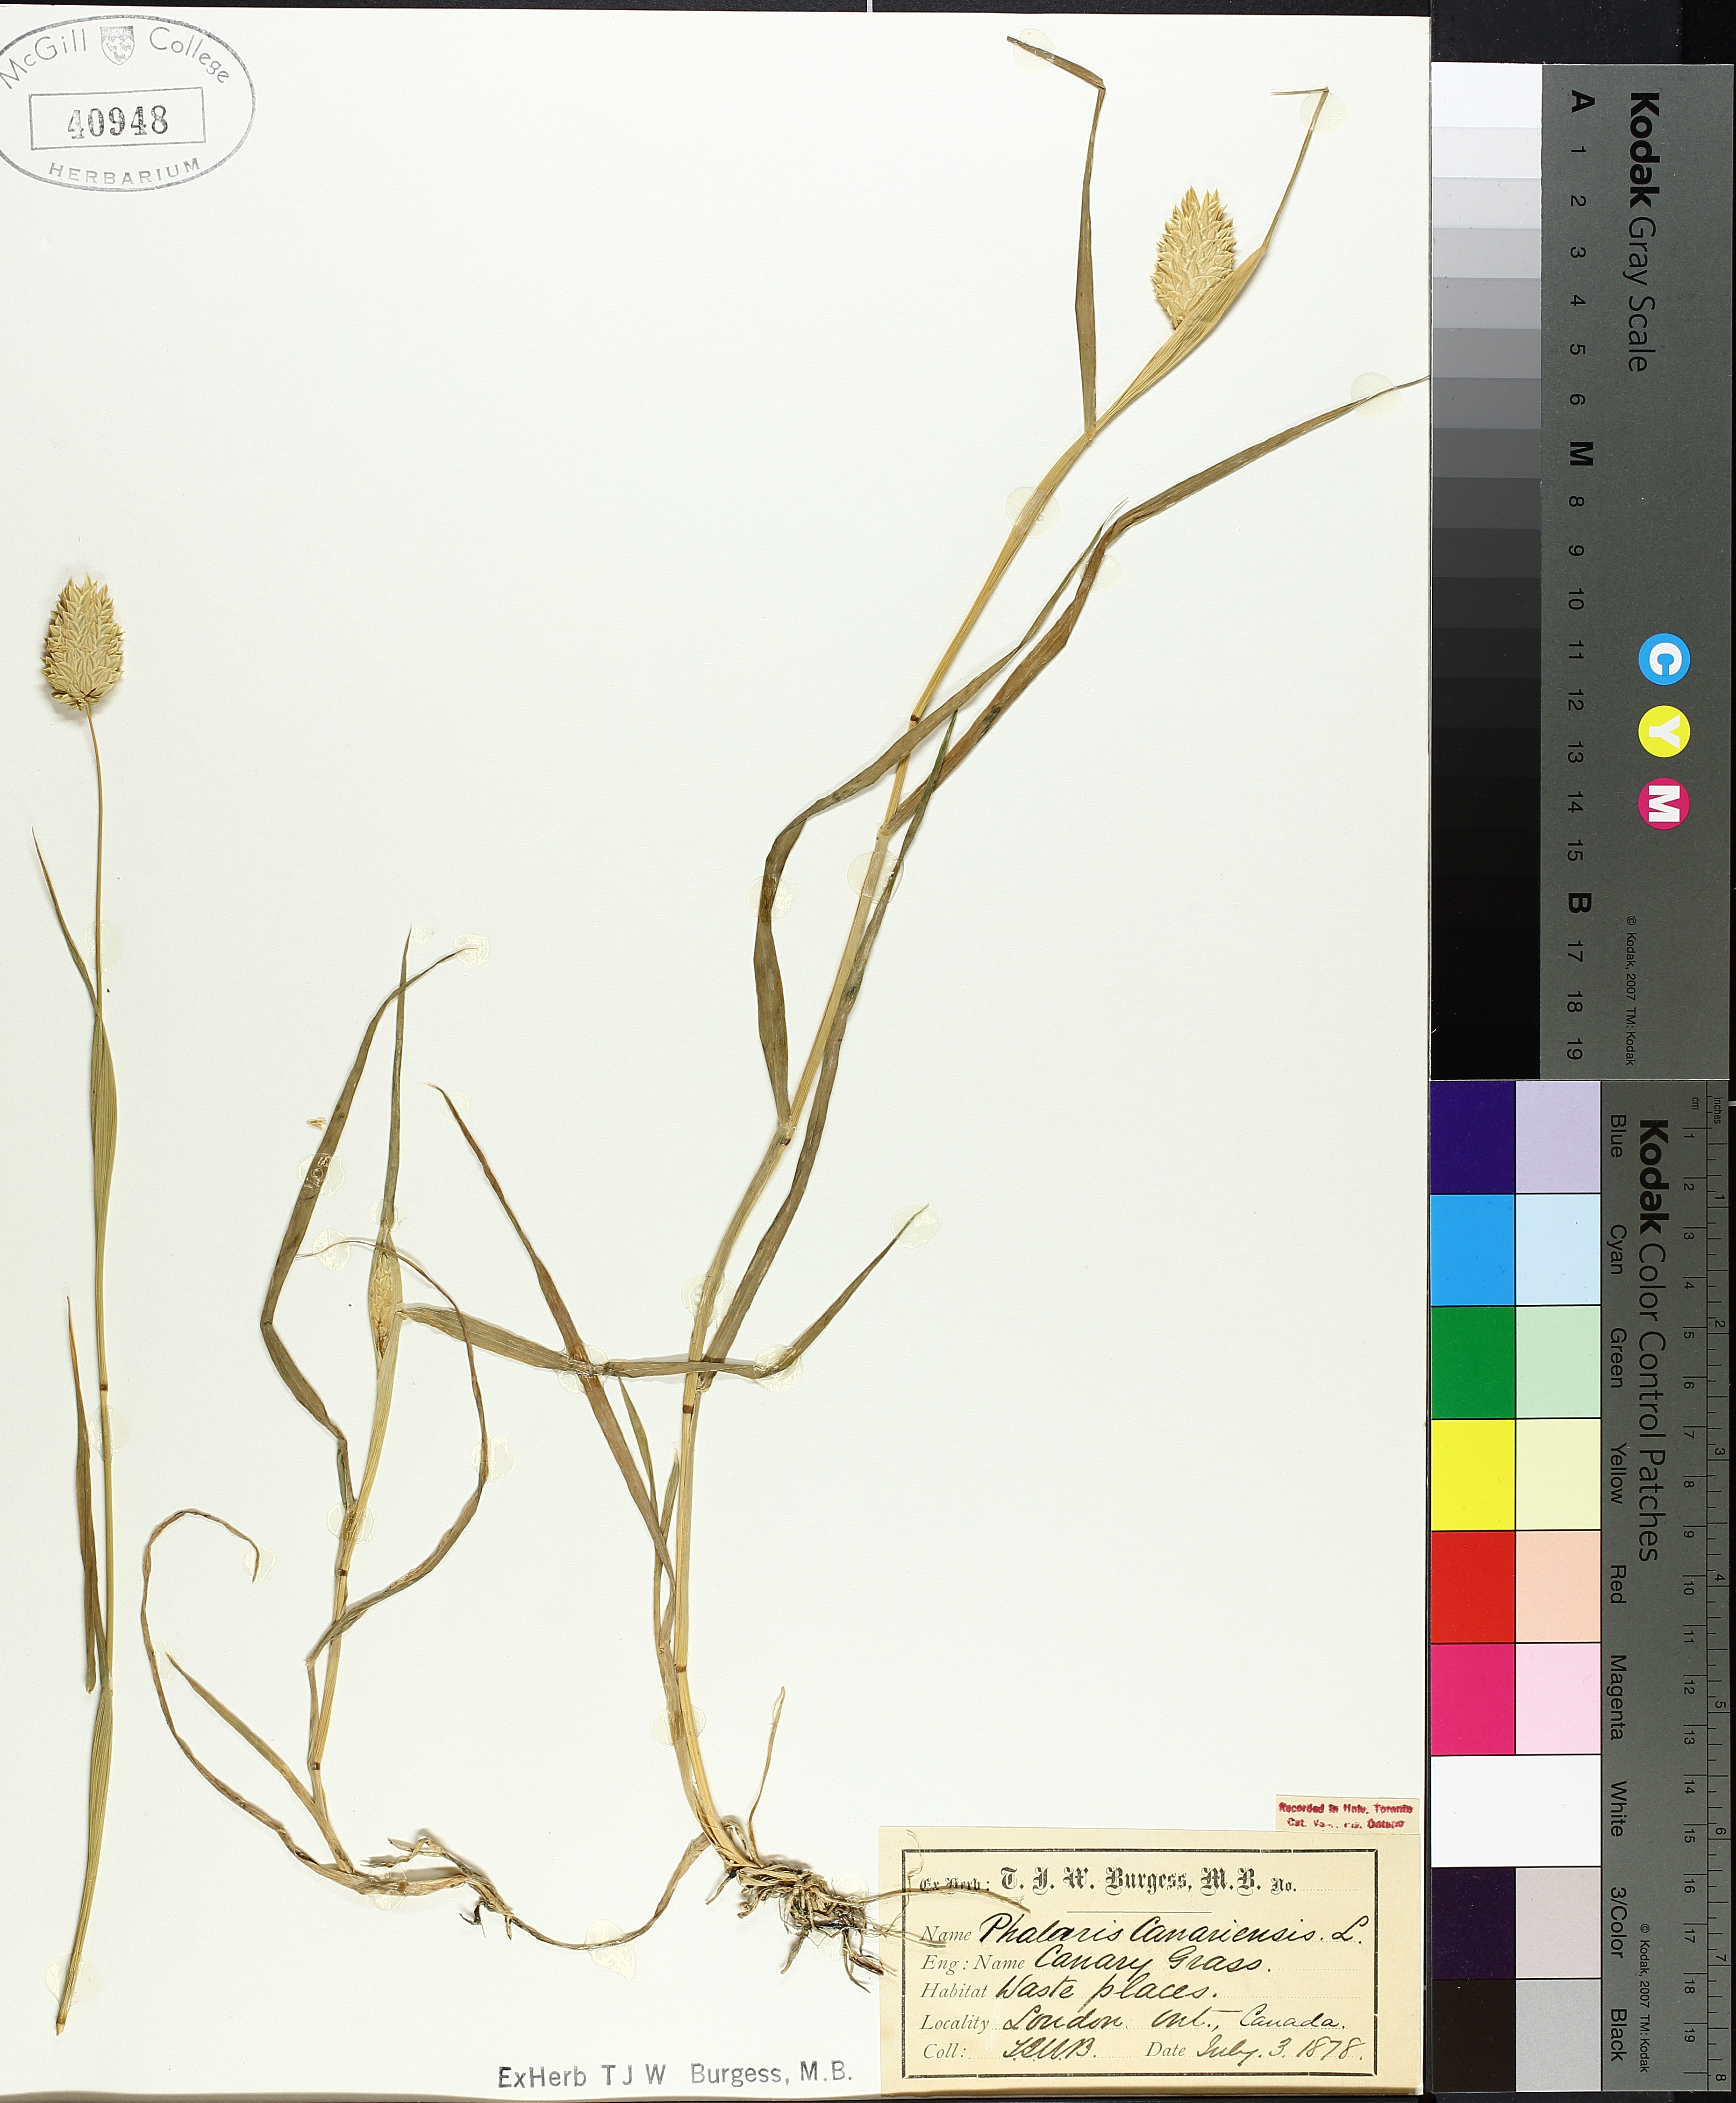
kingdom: Plantae
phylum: Tracheophyta
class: Liliopsida
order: Poales
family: Poaceae
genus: Phalaris
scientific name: Phalaris canariensis
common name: Annual canarygrass
